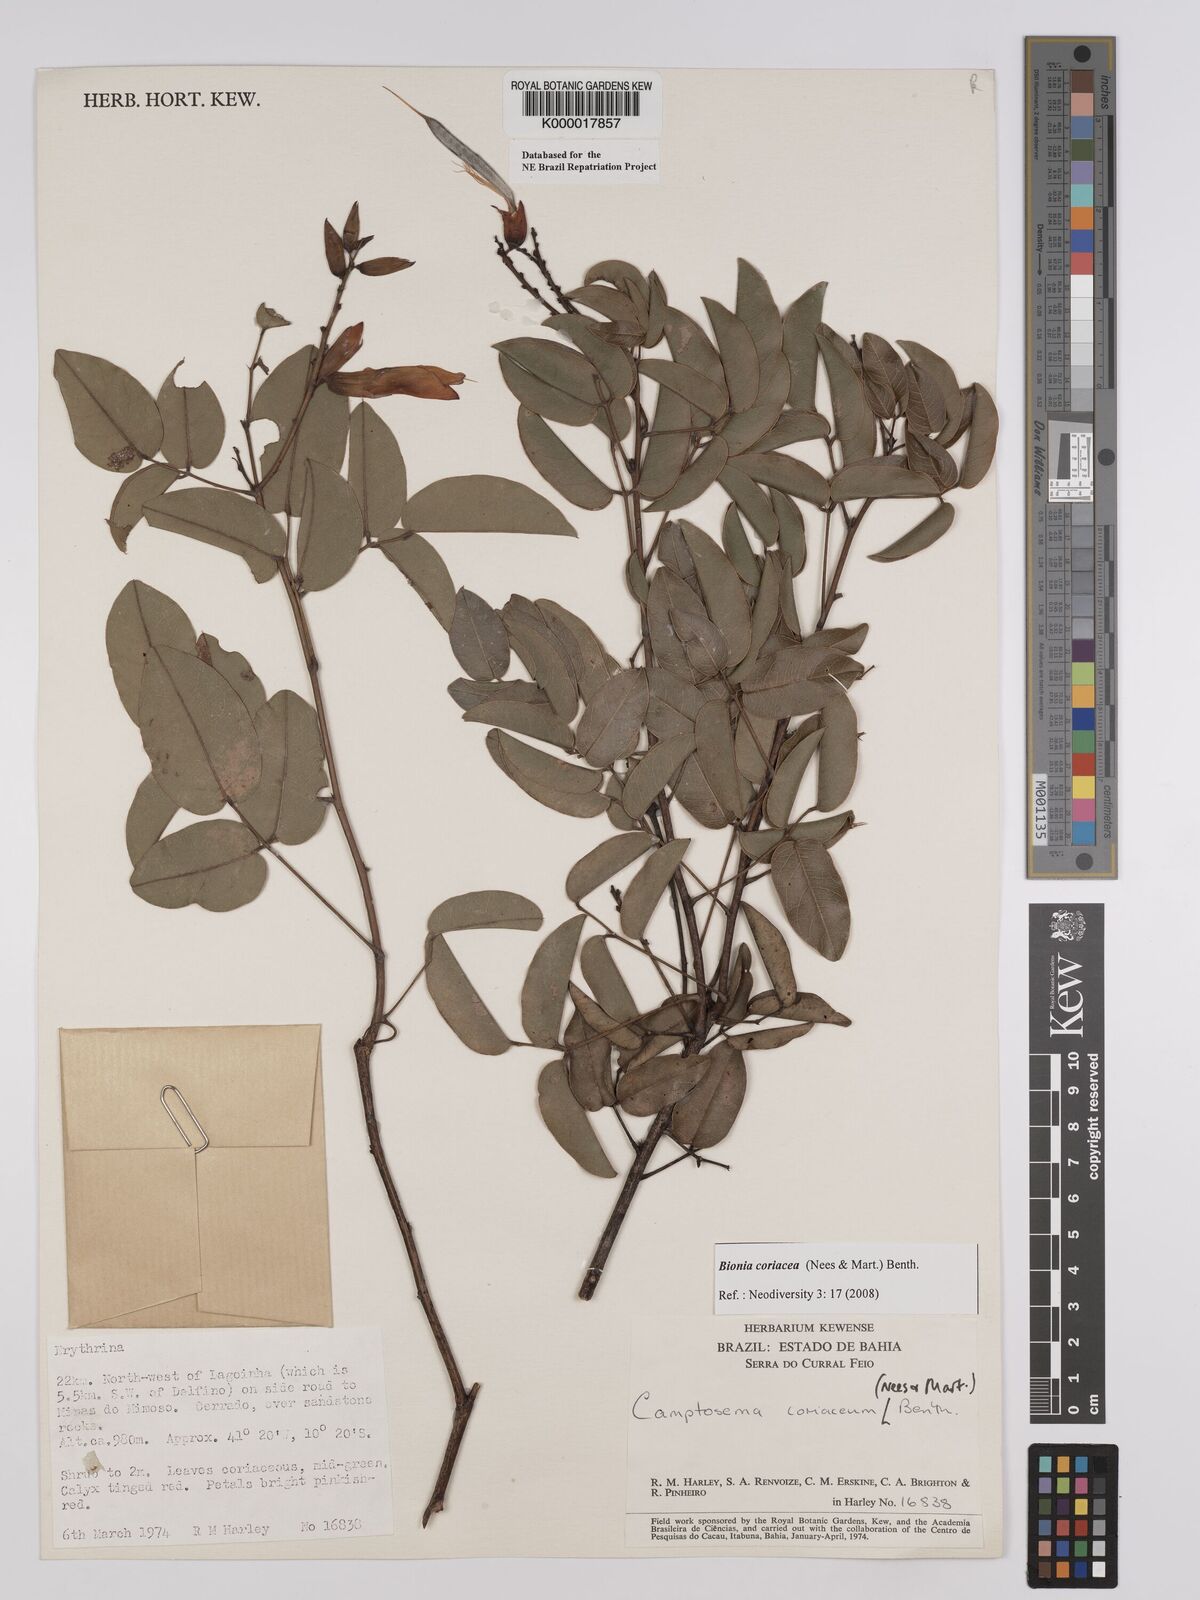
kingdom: Plantae
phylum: Tracheophyta
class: Magnoliopsida
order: Fabales
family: Fabaceae
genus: Camptosema
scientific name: Camptosema coriaceum
